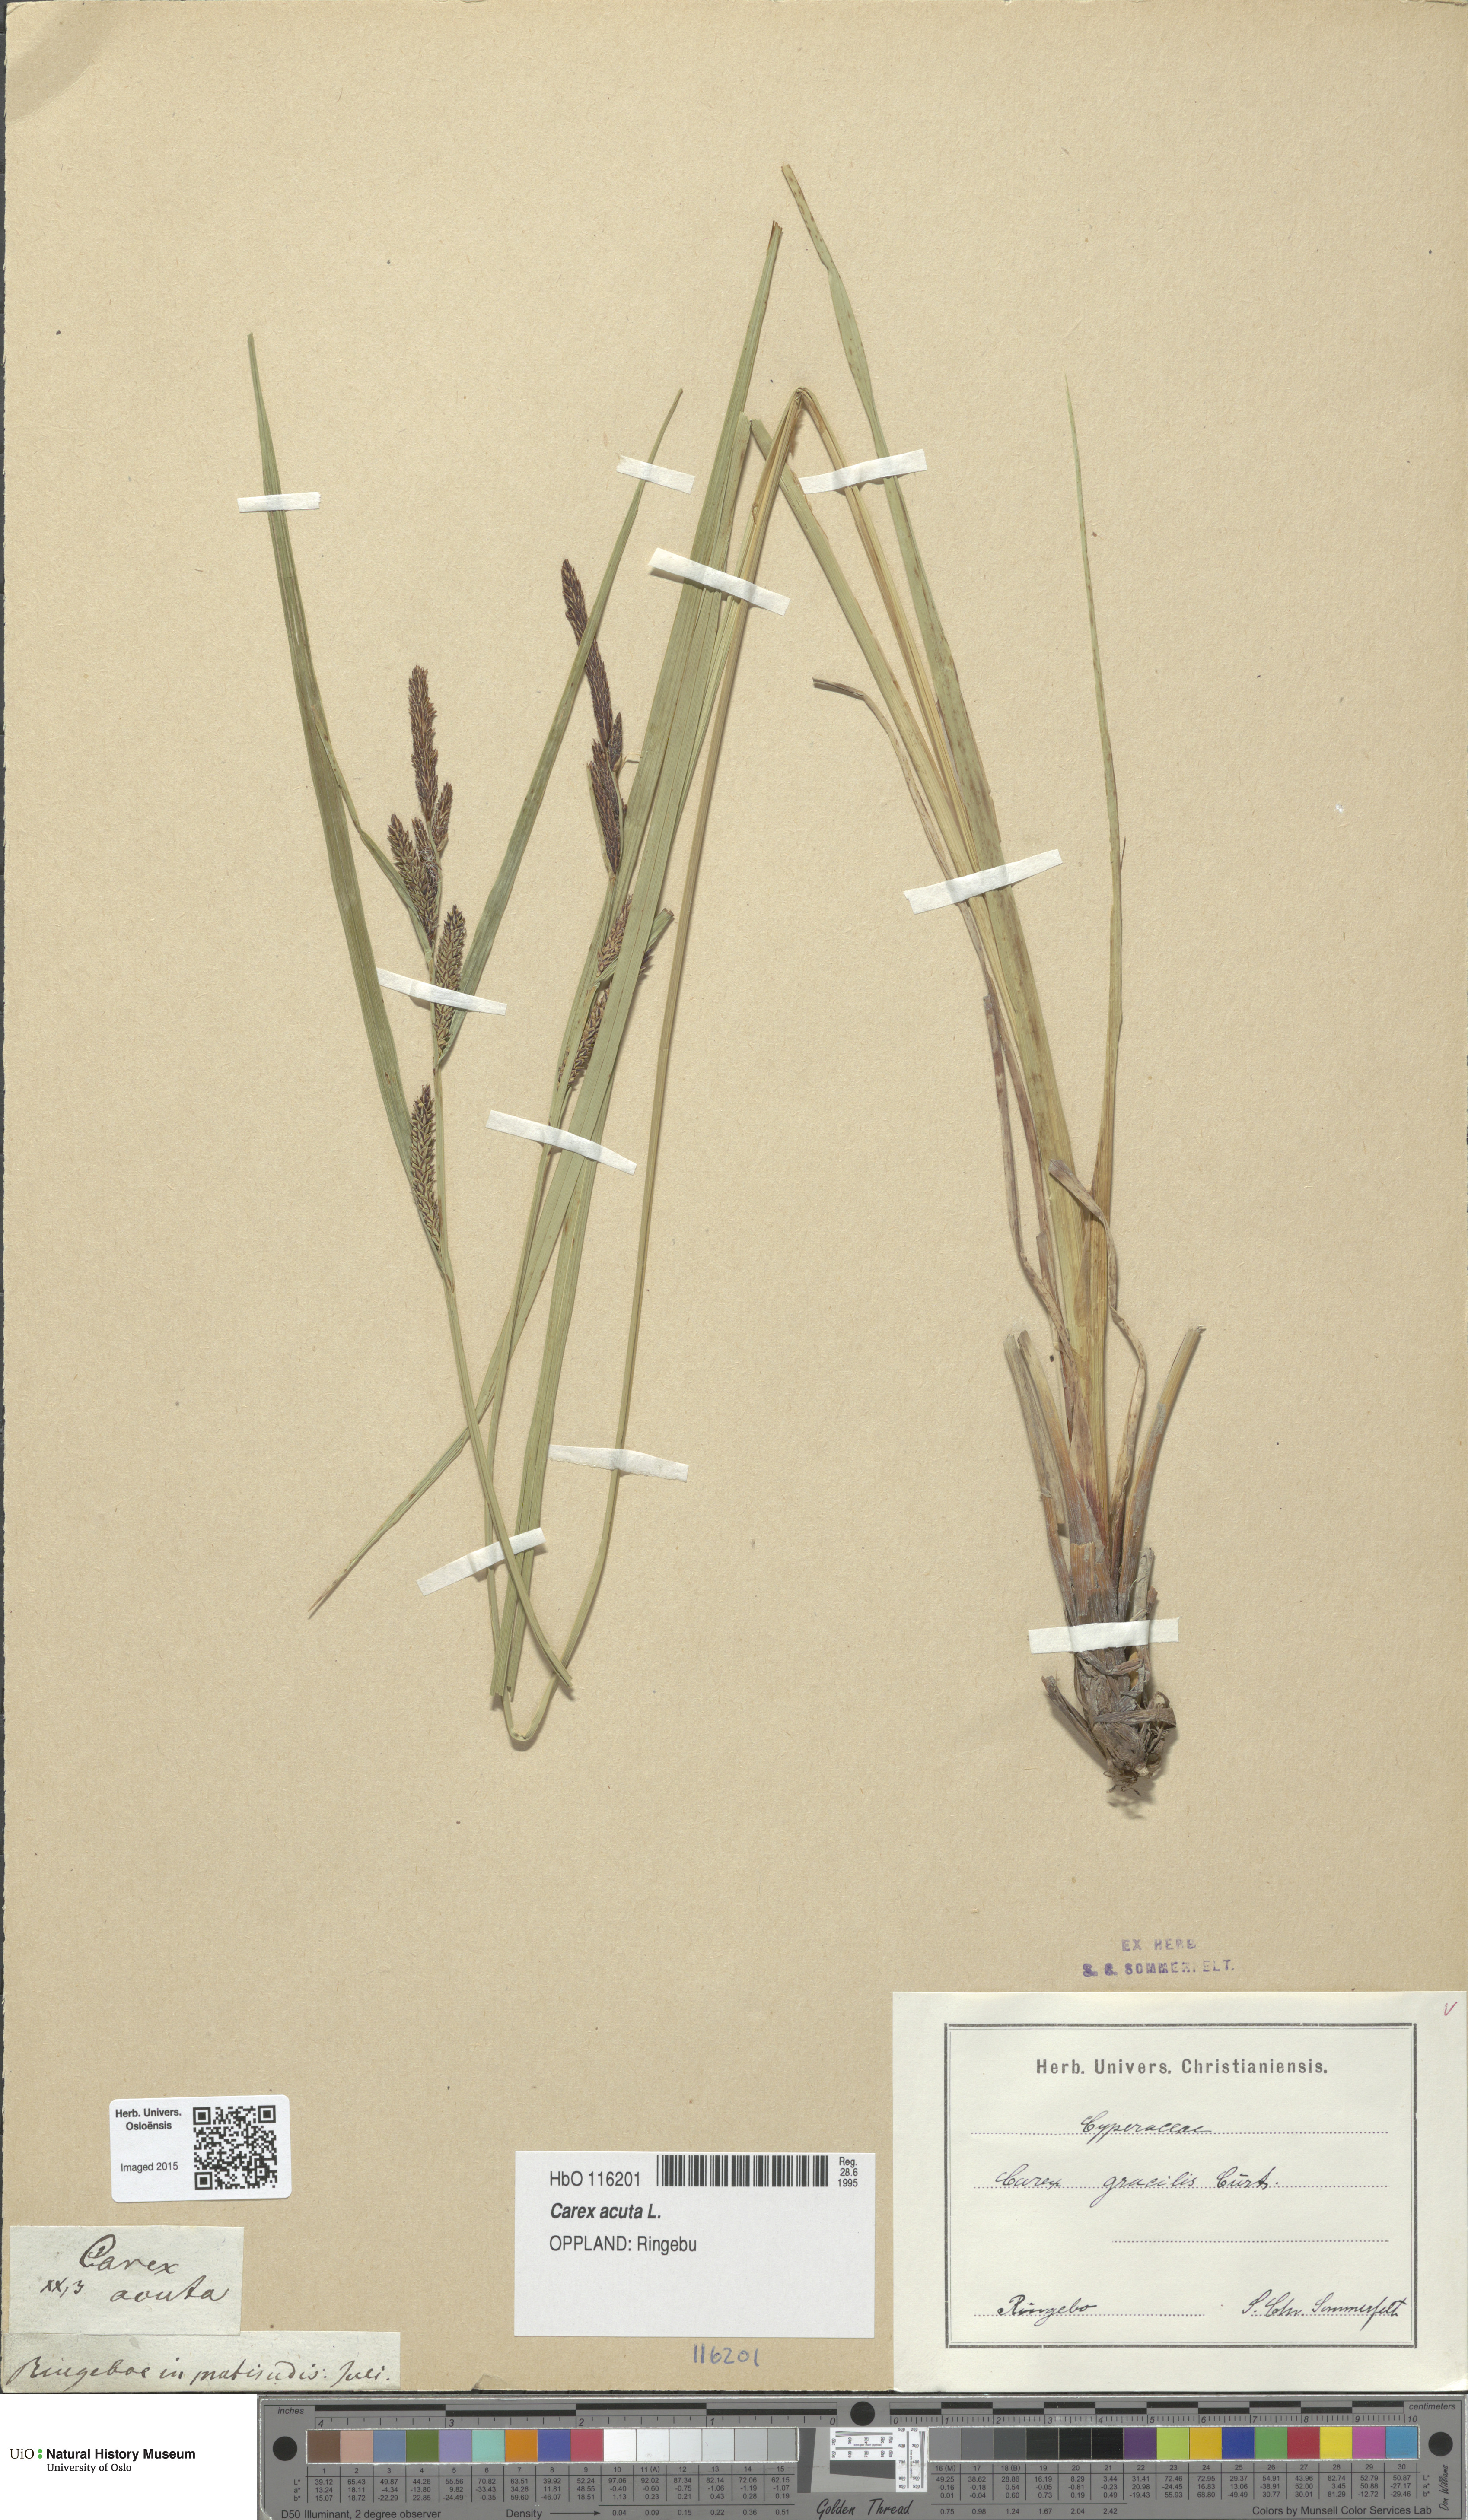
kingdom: Plantae
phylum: Tracheophyta
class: Liliopsida
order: Poales
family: Cyperaceae
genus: Carex
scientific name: Carex acuta
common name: Slender tufted-sedge
